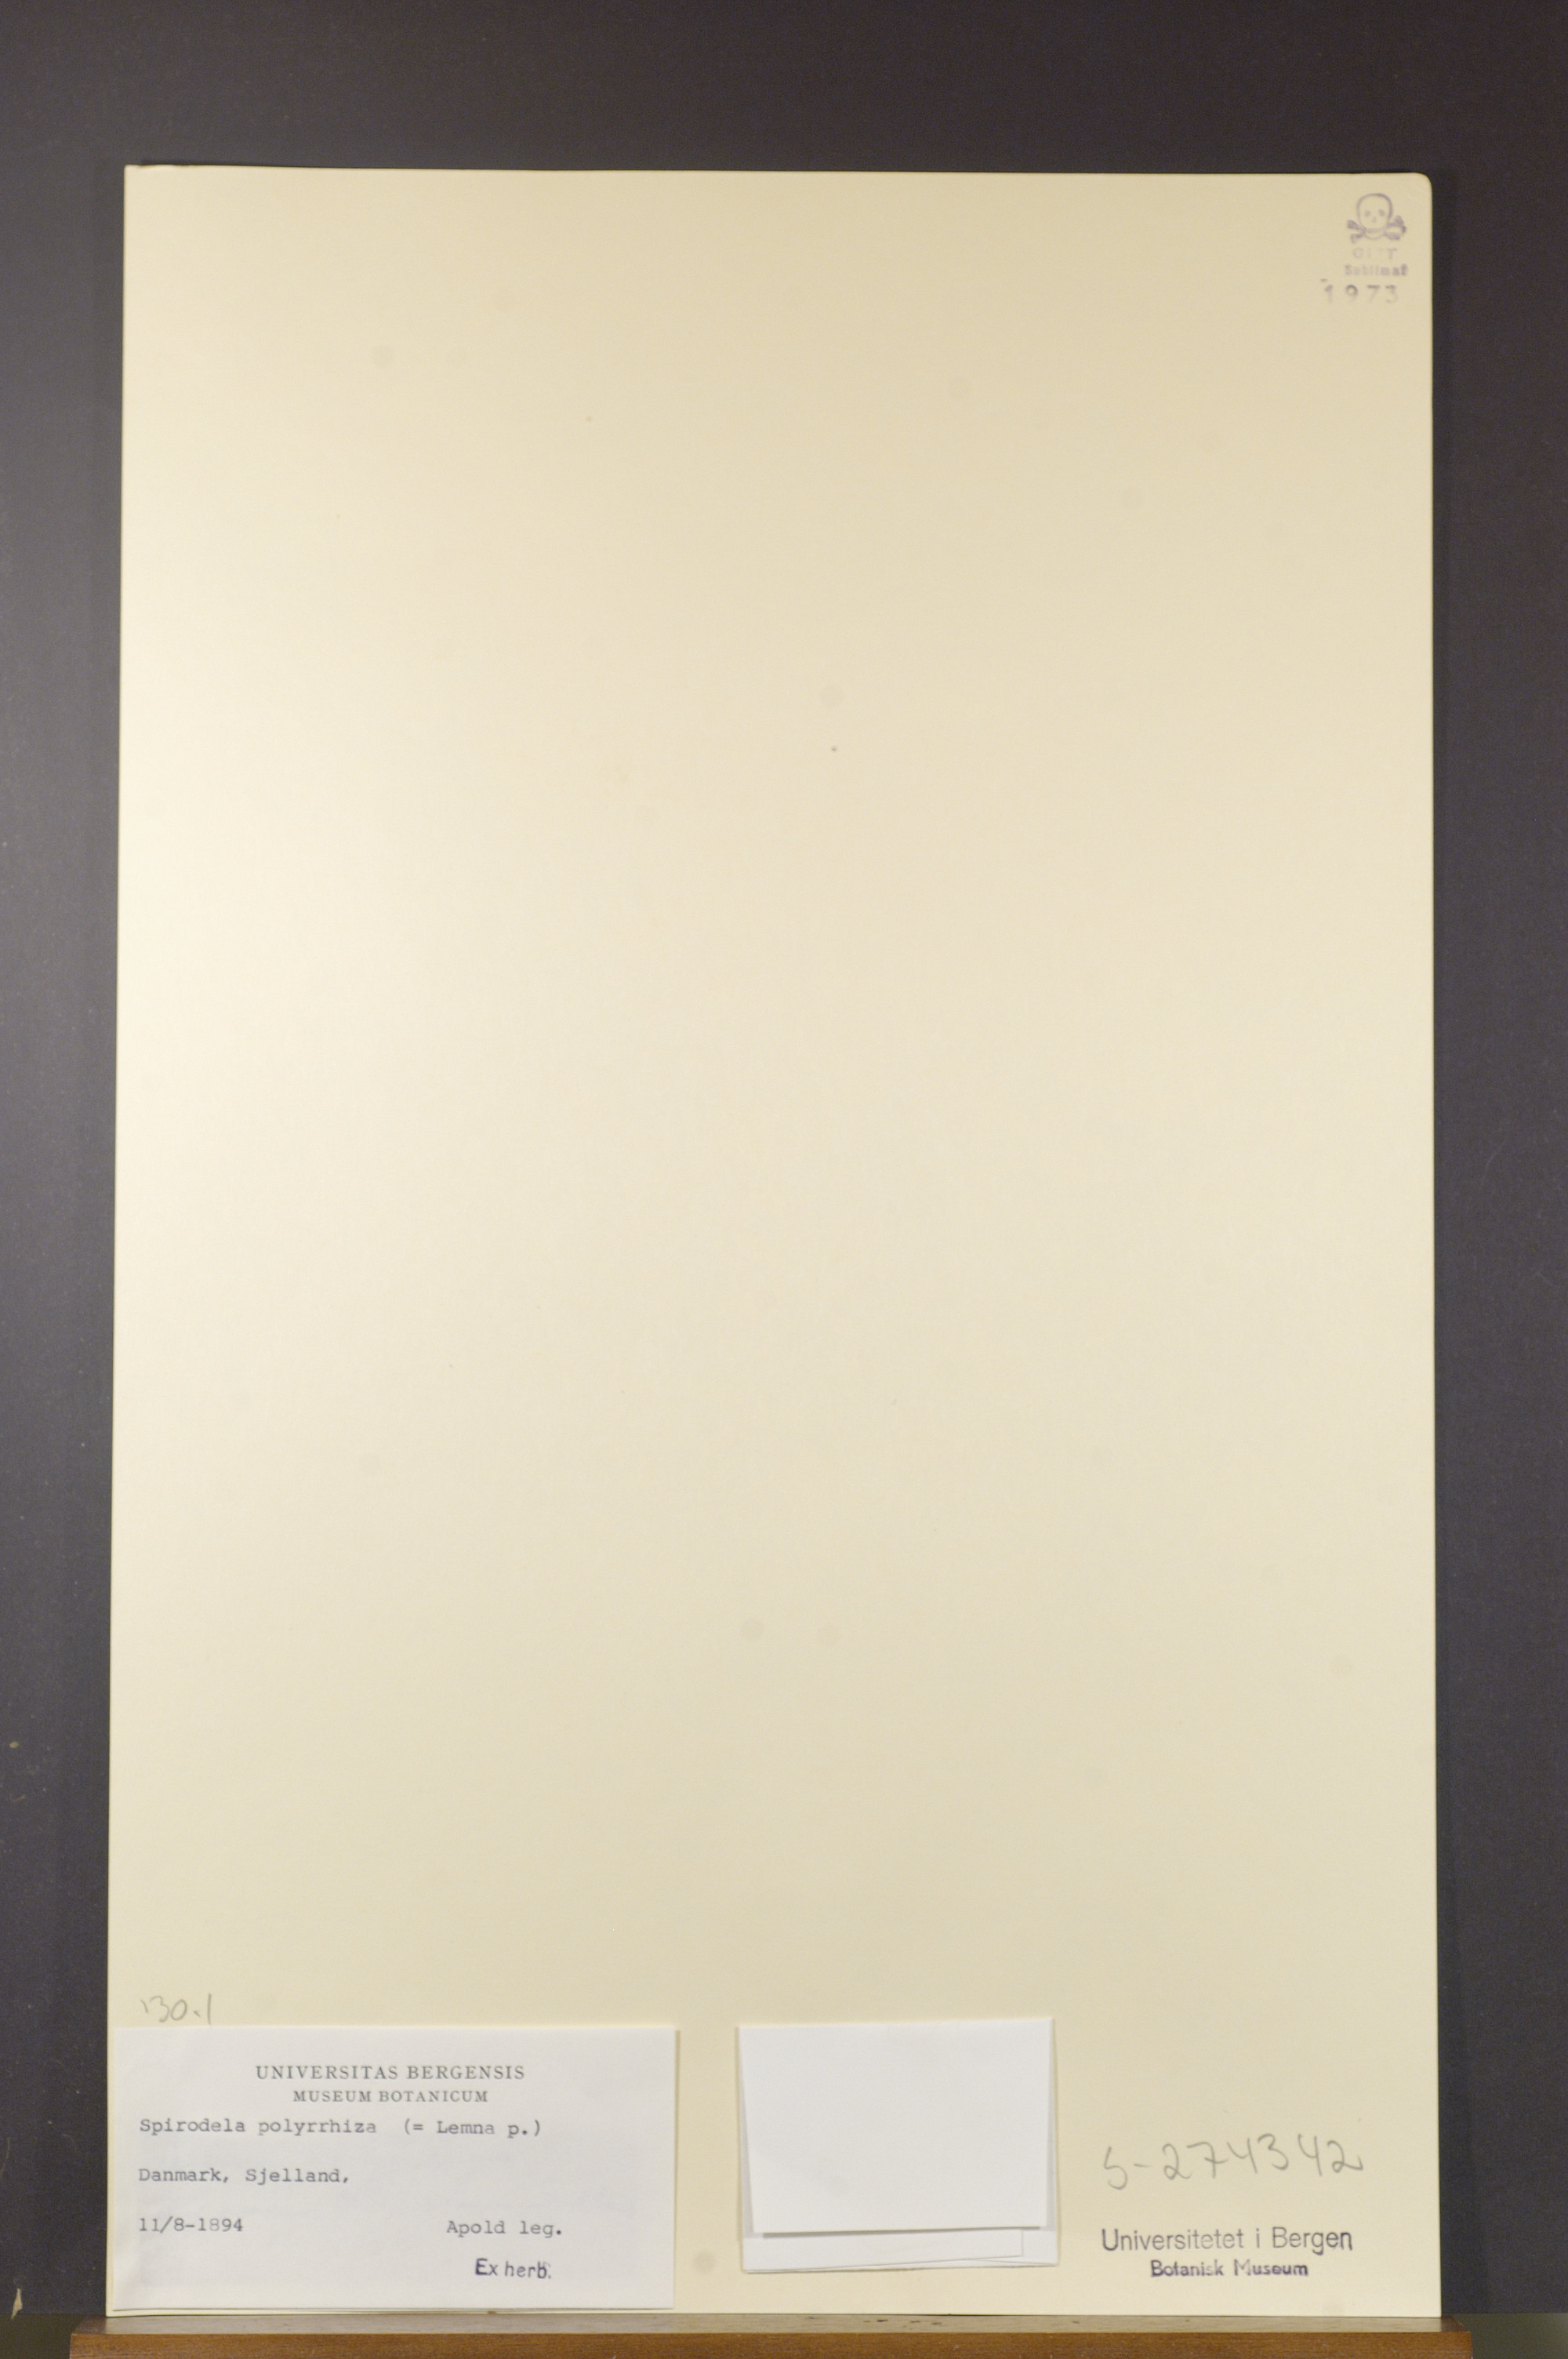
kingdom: Plantae
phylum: Tracheophyta
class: Liliopsida
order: Alismatales
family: Araceae
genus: Spirodela
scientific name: Spirodela polyrhiza
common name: Great duckweed
